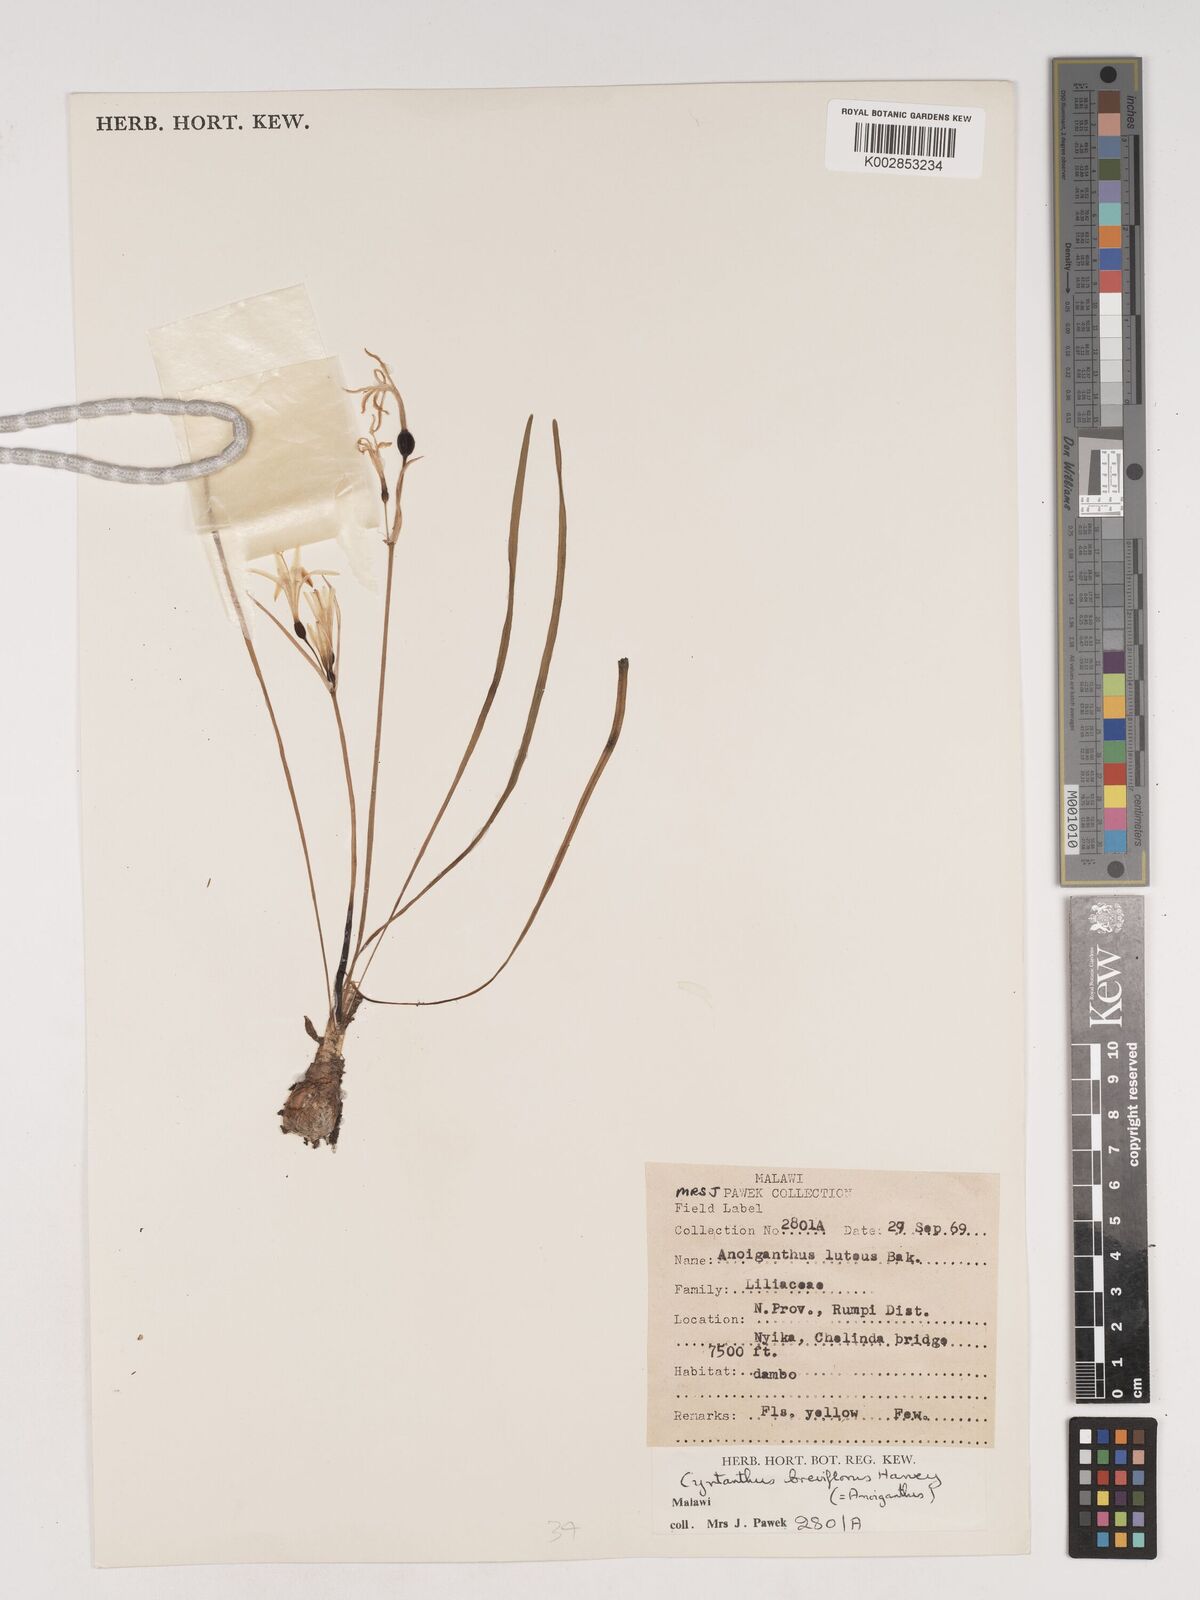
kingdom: Plantae
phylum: Tracheophyta
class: Liliopsida
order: Asparagales
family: Amaryllidaceae
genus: Cyrtanthus
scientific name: Cyrtanthus breviflorus
